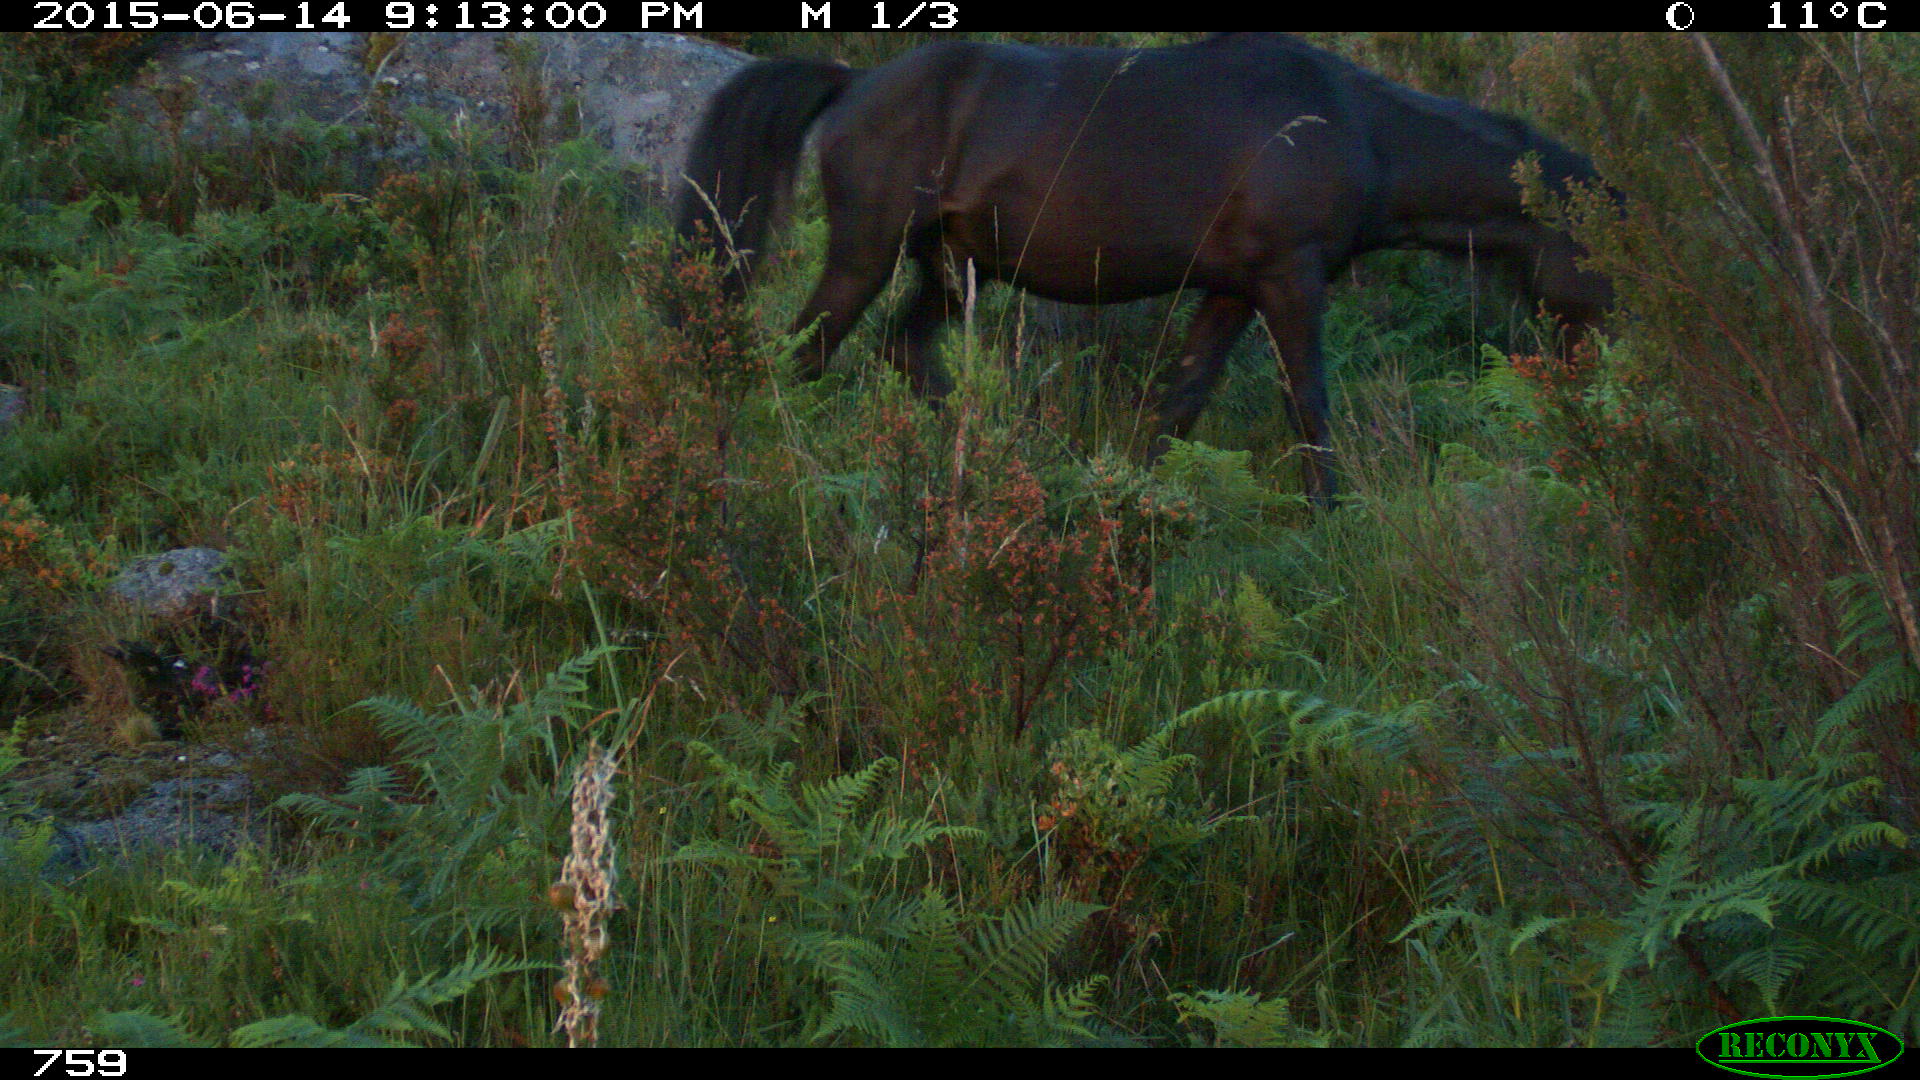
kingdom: Animalia
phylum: Chordata
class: Mammalia
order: Perissodactyla
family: Equidae
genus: Equus
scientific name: Equus caballus
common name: Horse
